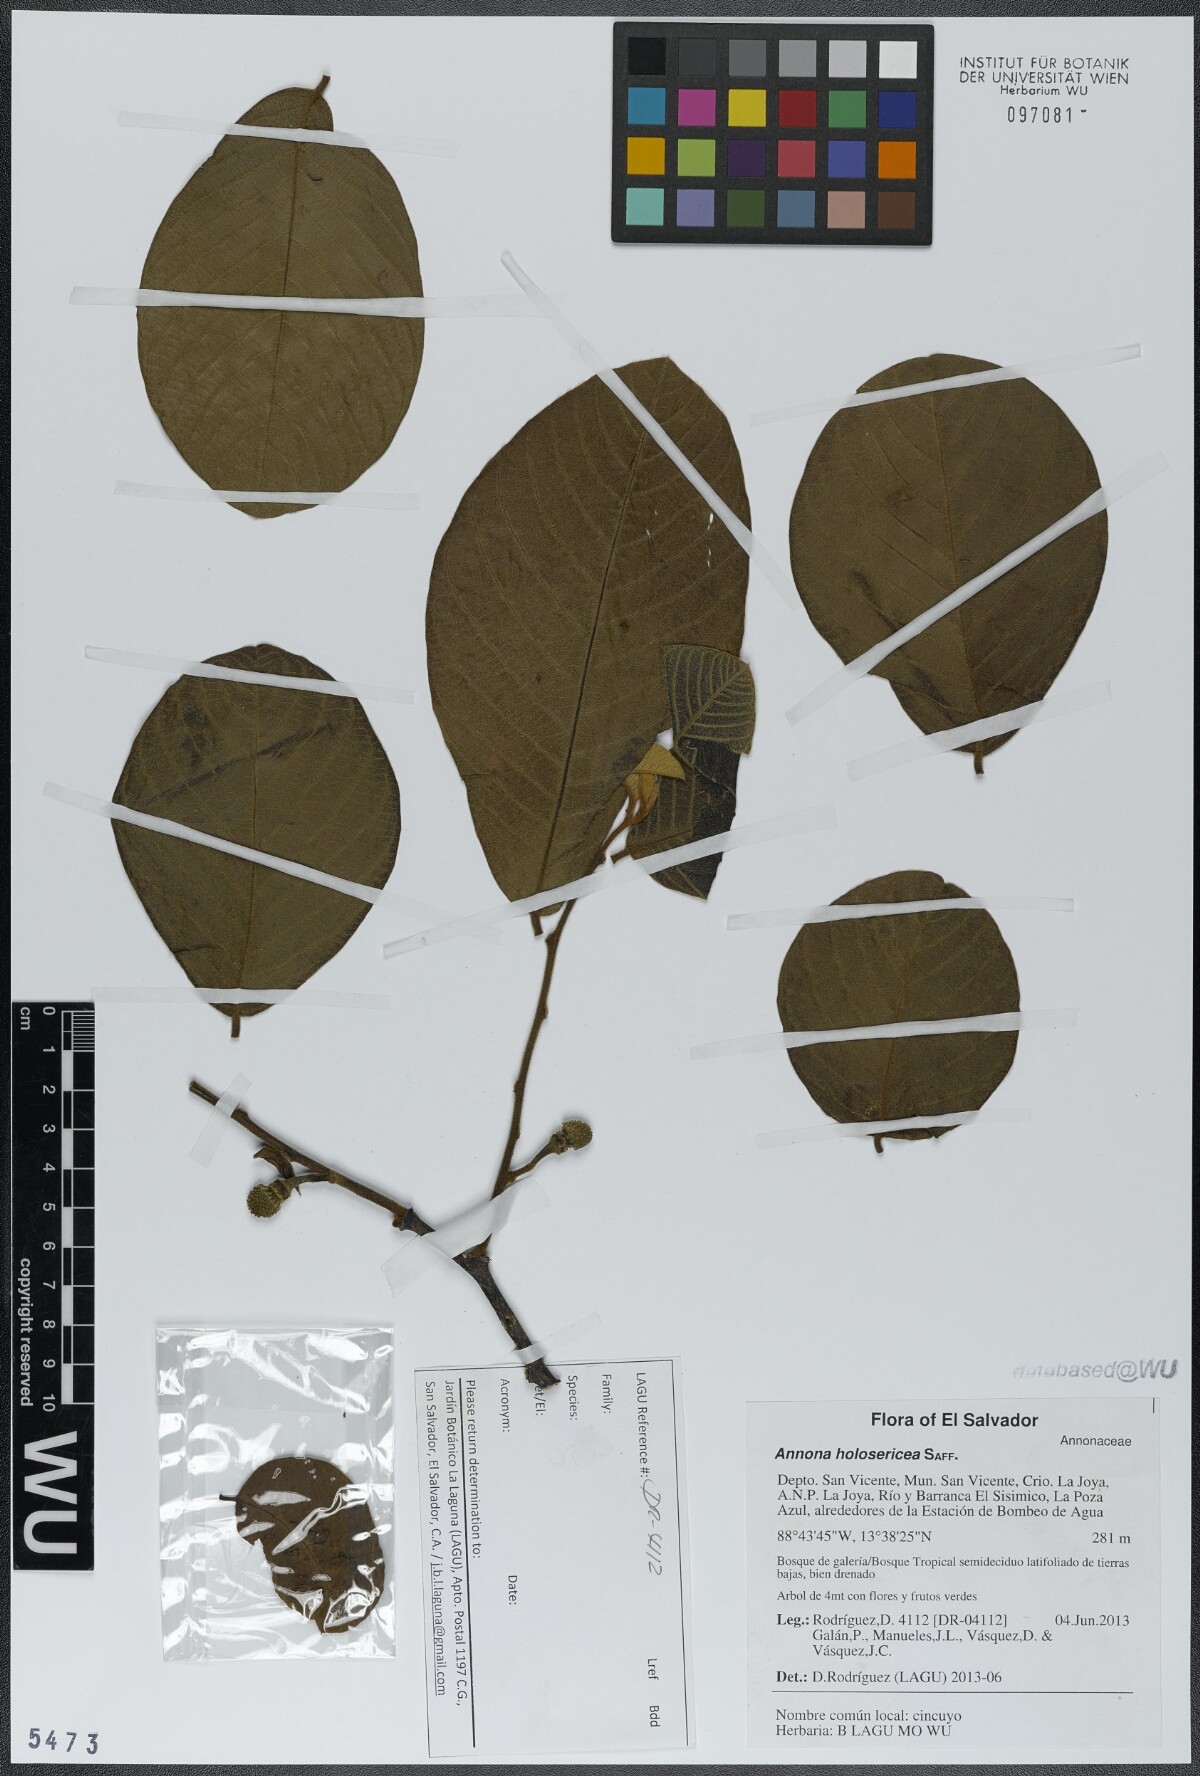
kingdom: Plantae
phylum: Tracheophyta
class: Magnoliopsida
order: Magnoliales
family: Annonaceae
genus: Annona
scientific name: Annona holosericea
